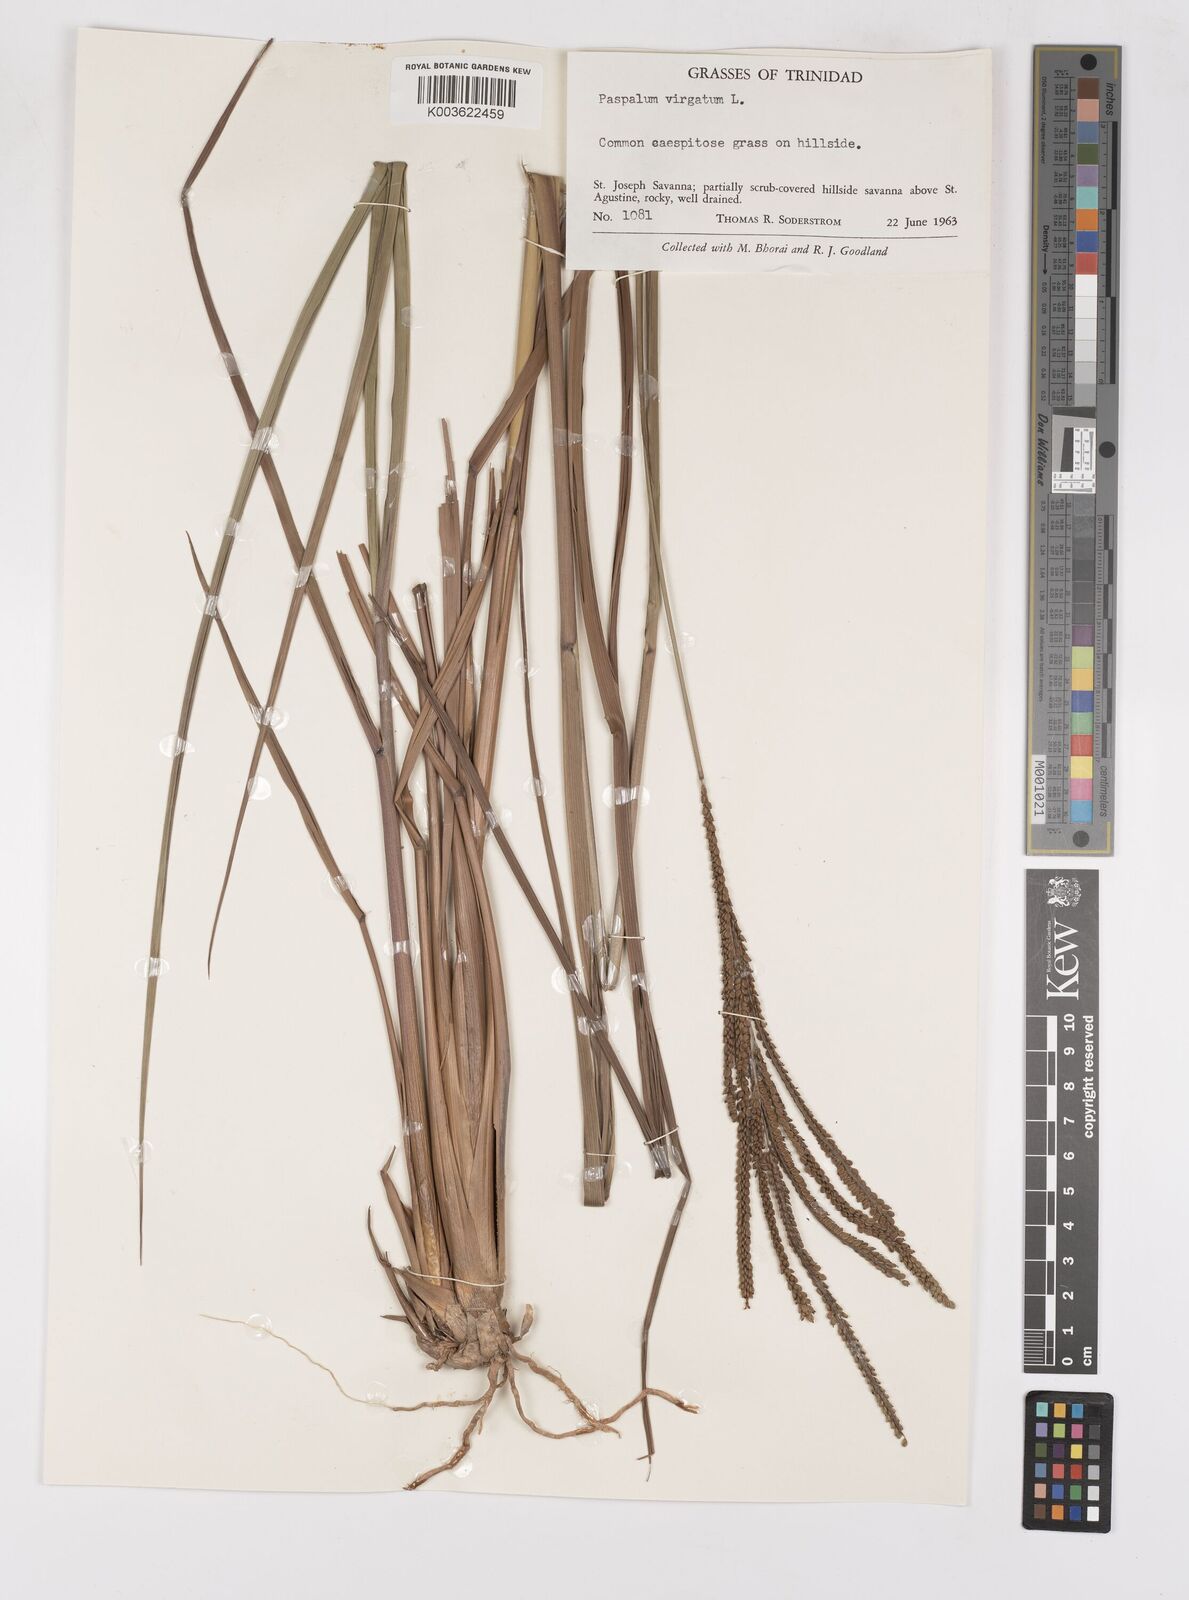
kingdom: Plantae
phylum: Tracheophyta
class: Liliopsida
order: Poales
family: Poaceae
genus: Paspalum
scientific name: Paspalum virgatum
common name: Talquezal
